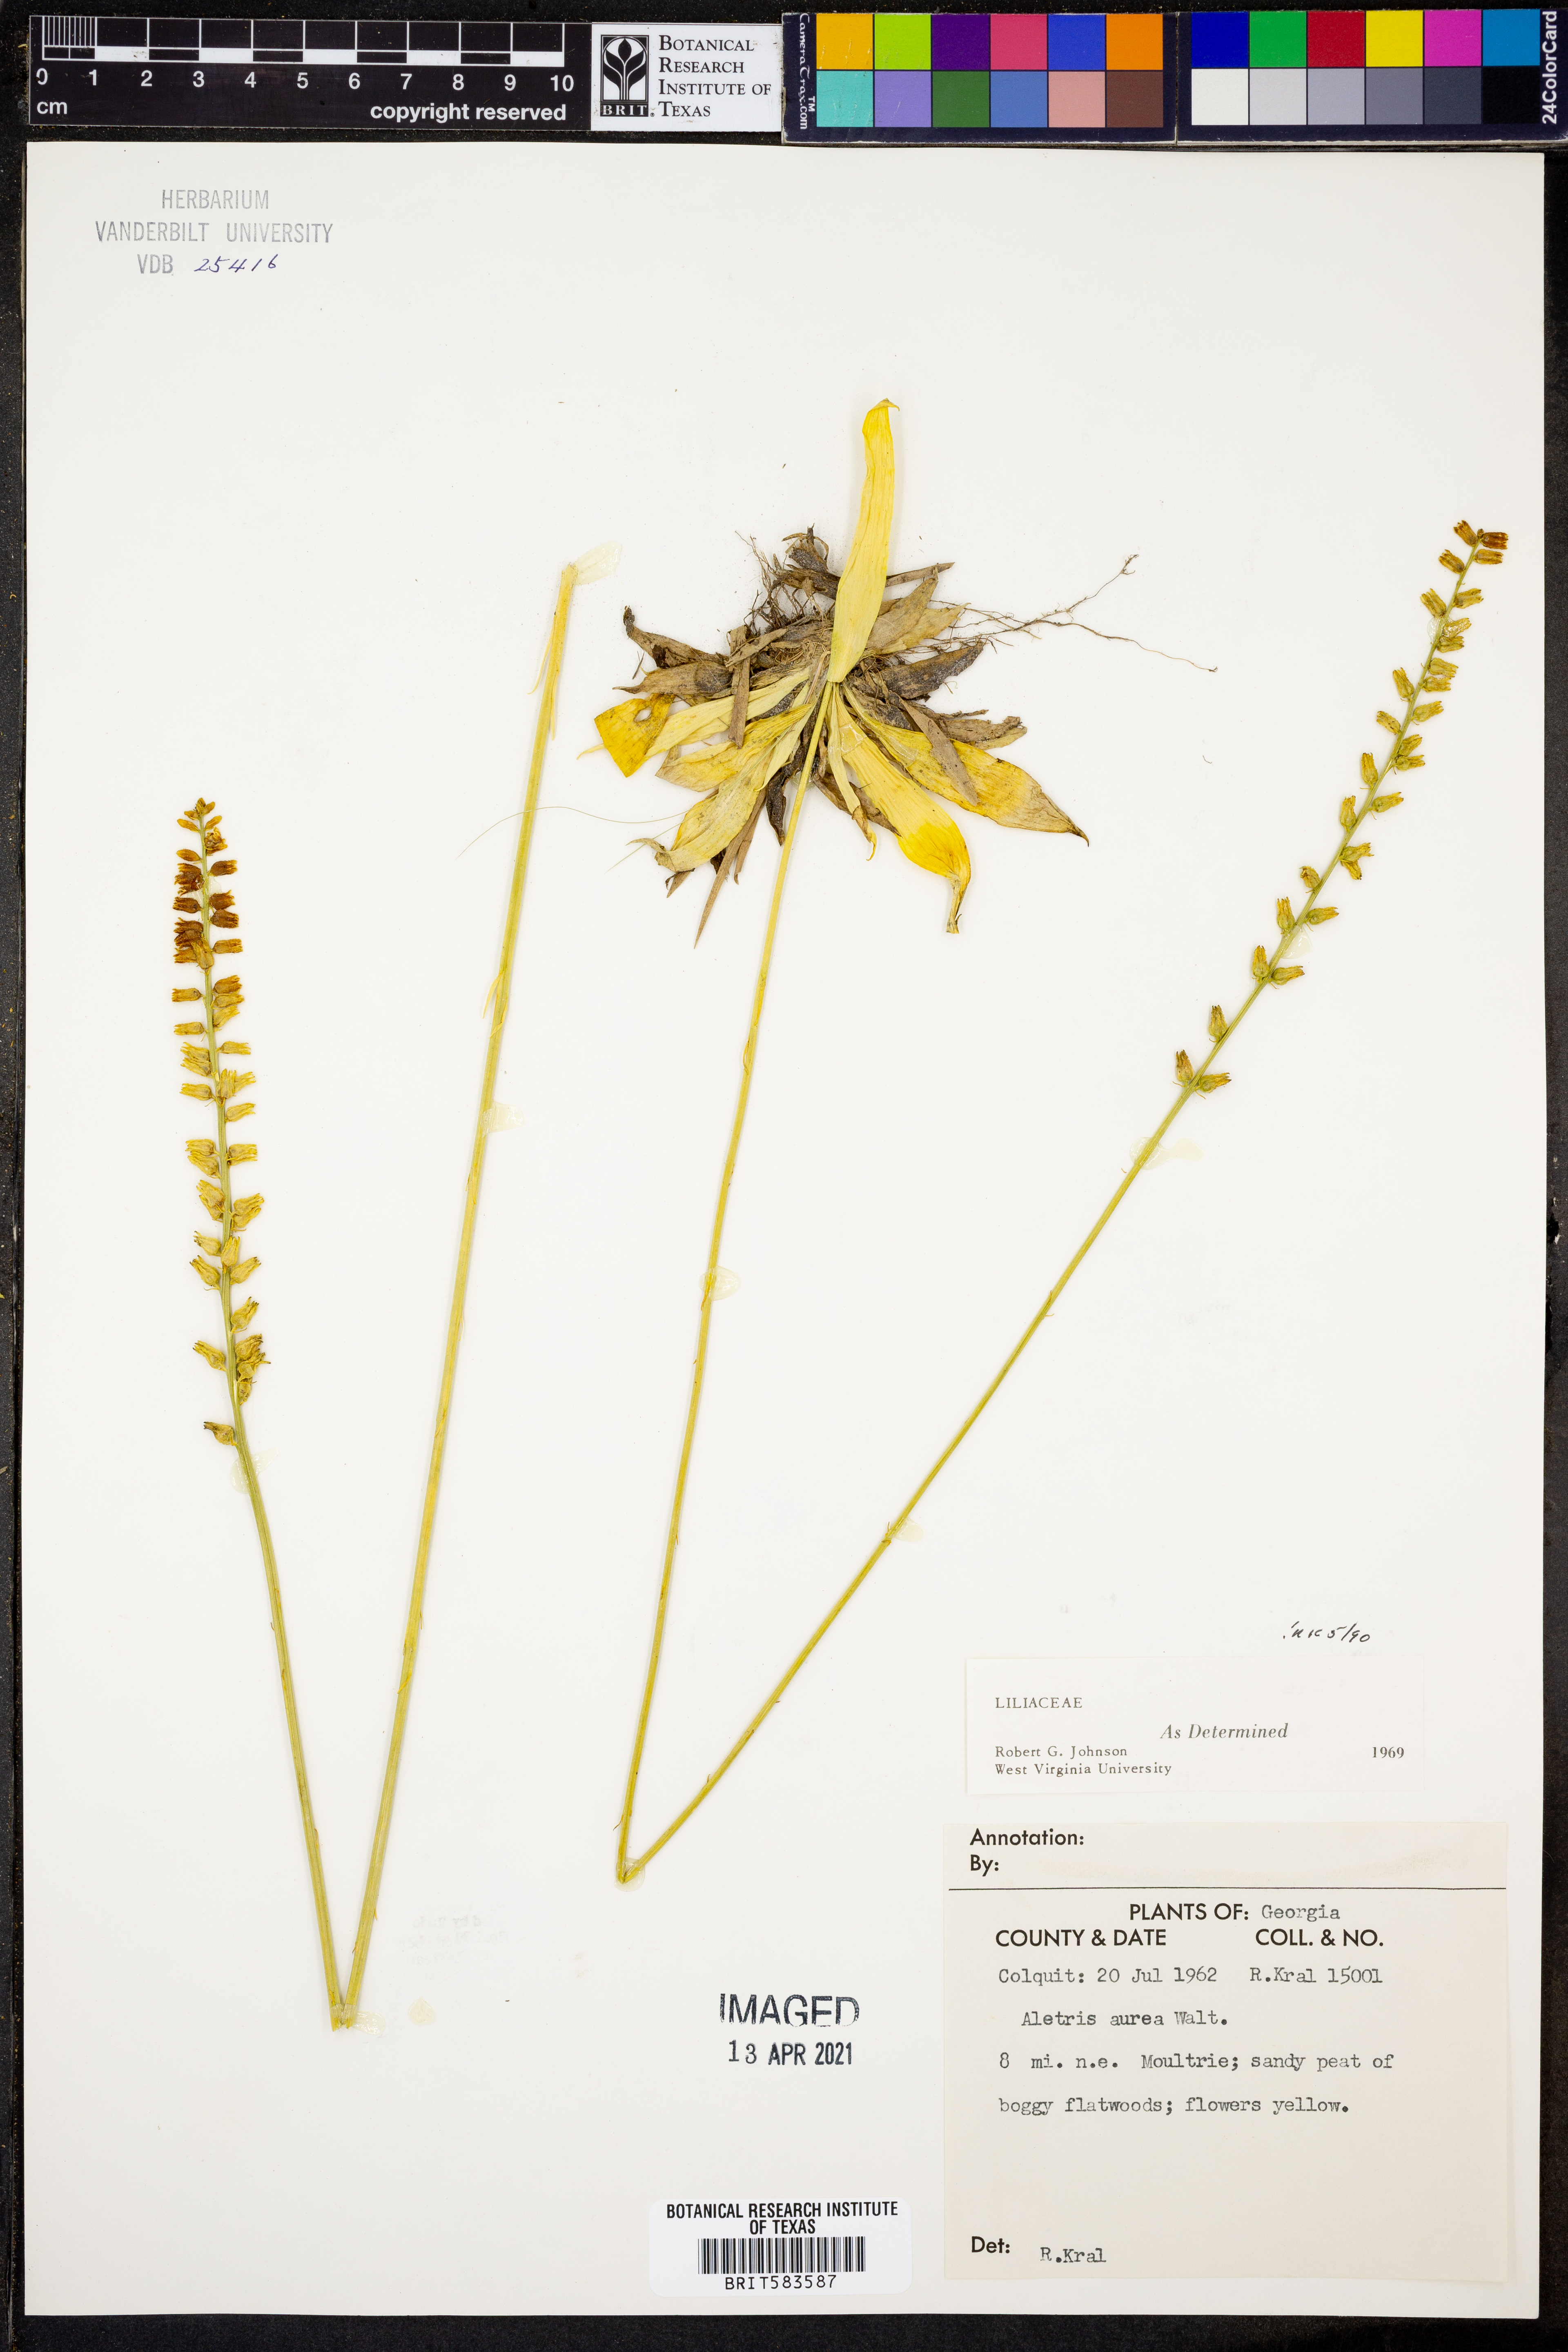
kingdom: Plantae
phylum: Tracheophyta
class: Liliopsida
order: Dioscoreales
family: Nartheciaceae
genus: Aletris
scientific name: Aletris aurea
